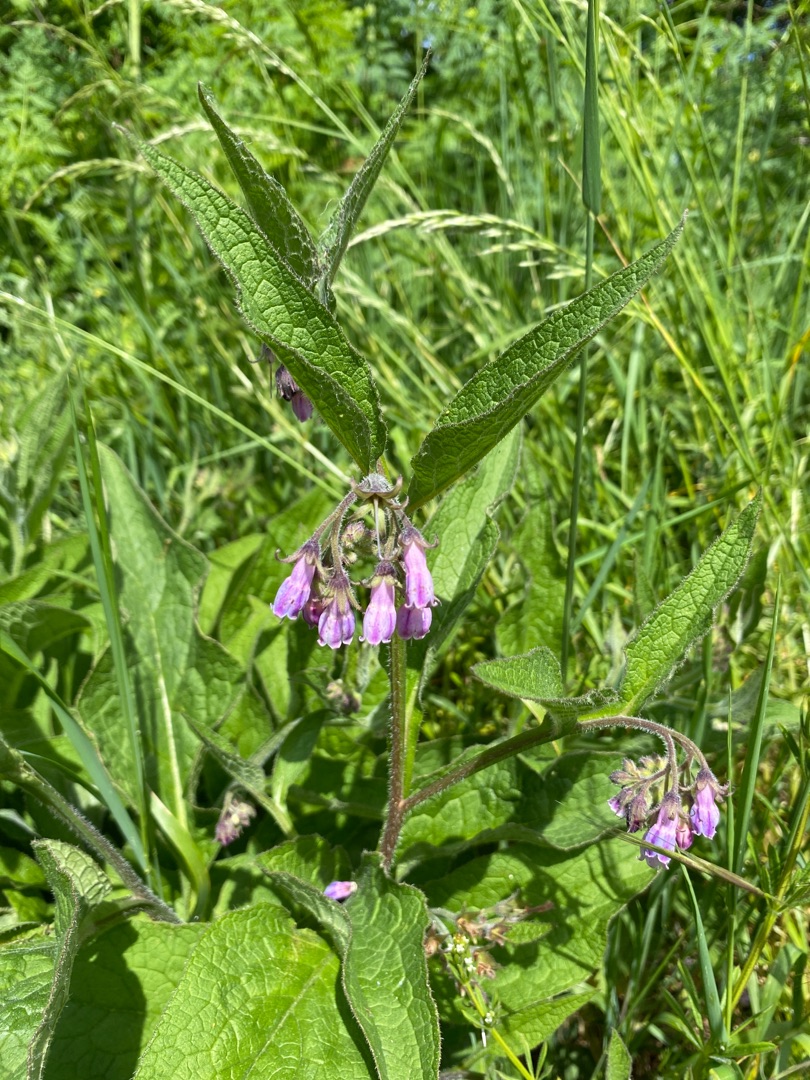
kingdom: Plantae
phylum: Tracheophyta
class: Magnoliopsida
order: Boraginales
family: Boraginaceae
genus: Symphytum
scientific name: Symphytum uplandicum
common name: Foder-kulsukker
